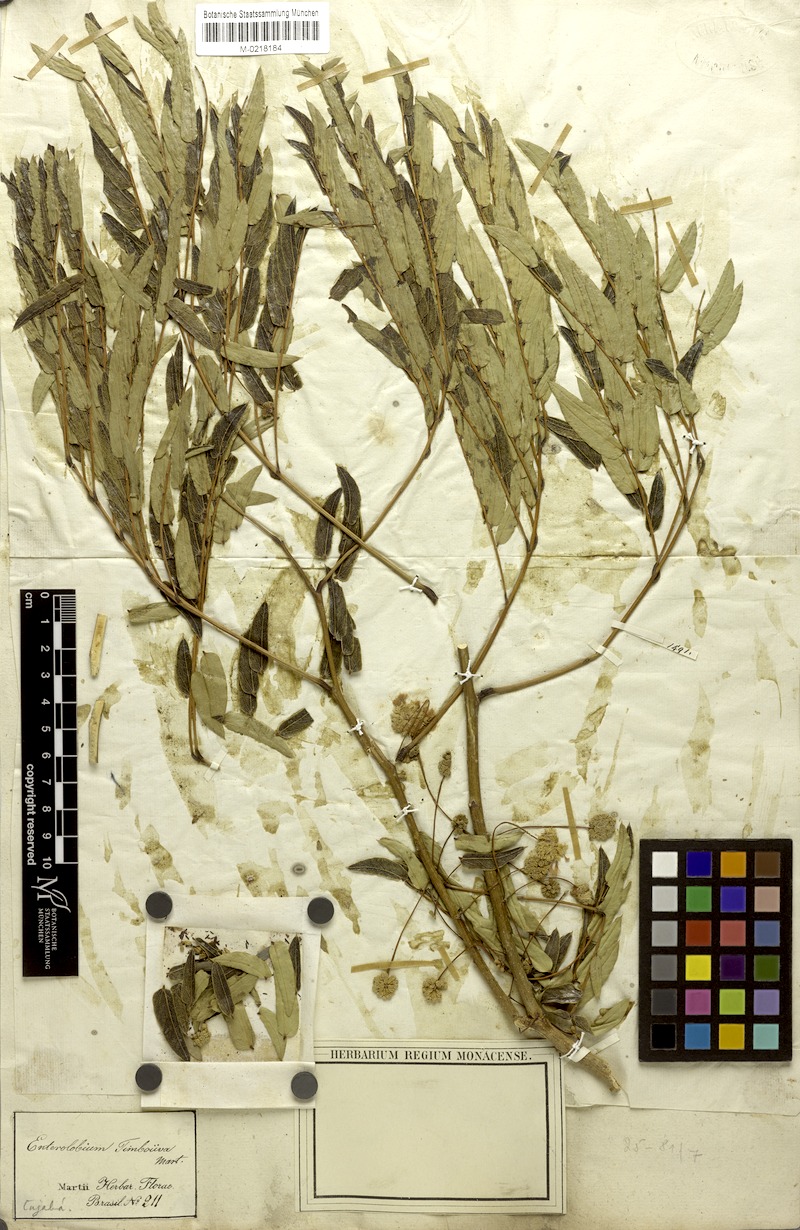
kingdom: Plantae
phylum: Tracheophyta
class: Magnoliopsida
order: Fabales
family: Fabaceae
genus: Enterolobium
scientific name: Enterolobium contortisiliquum
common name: Pacara earpod tree
